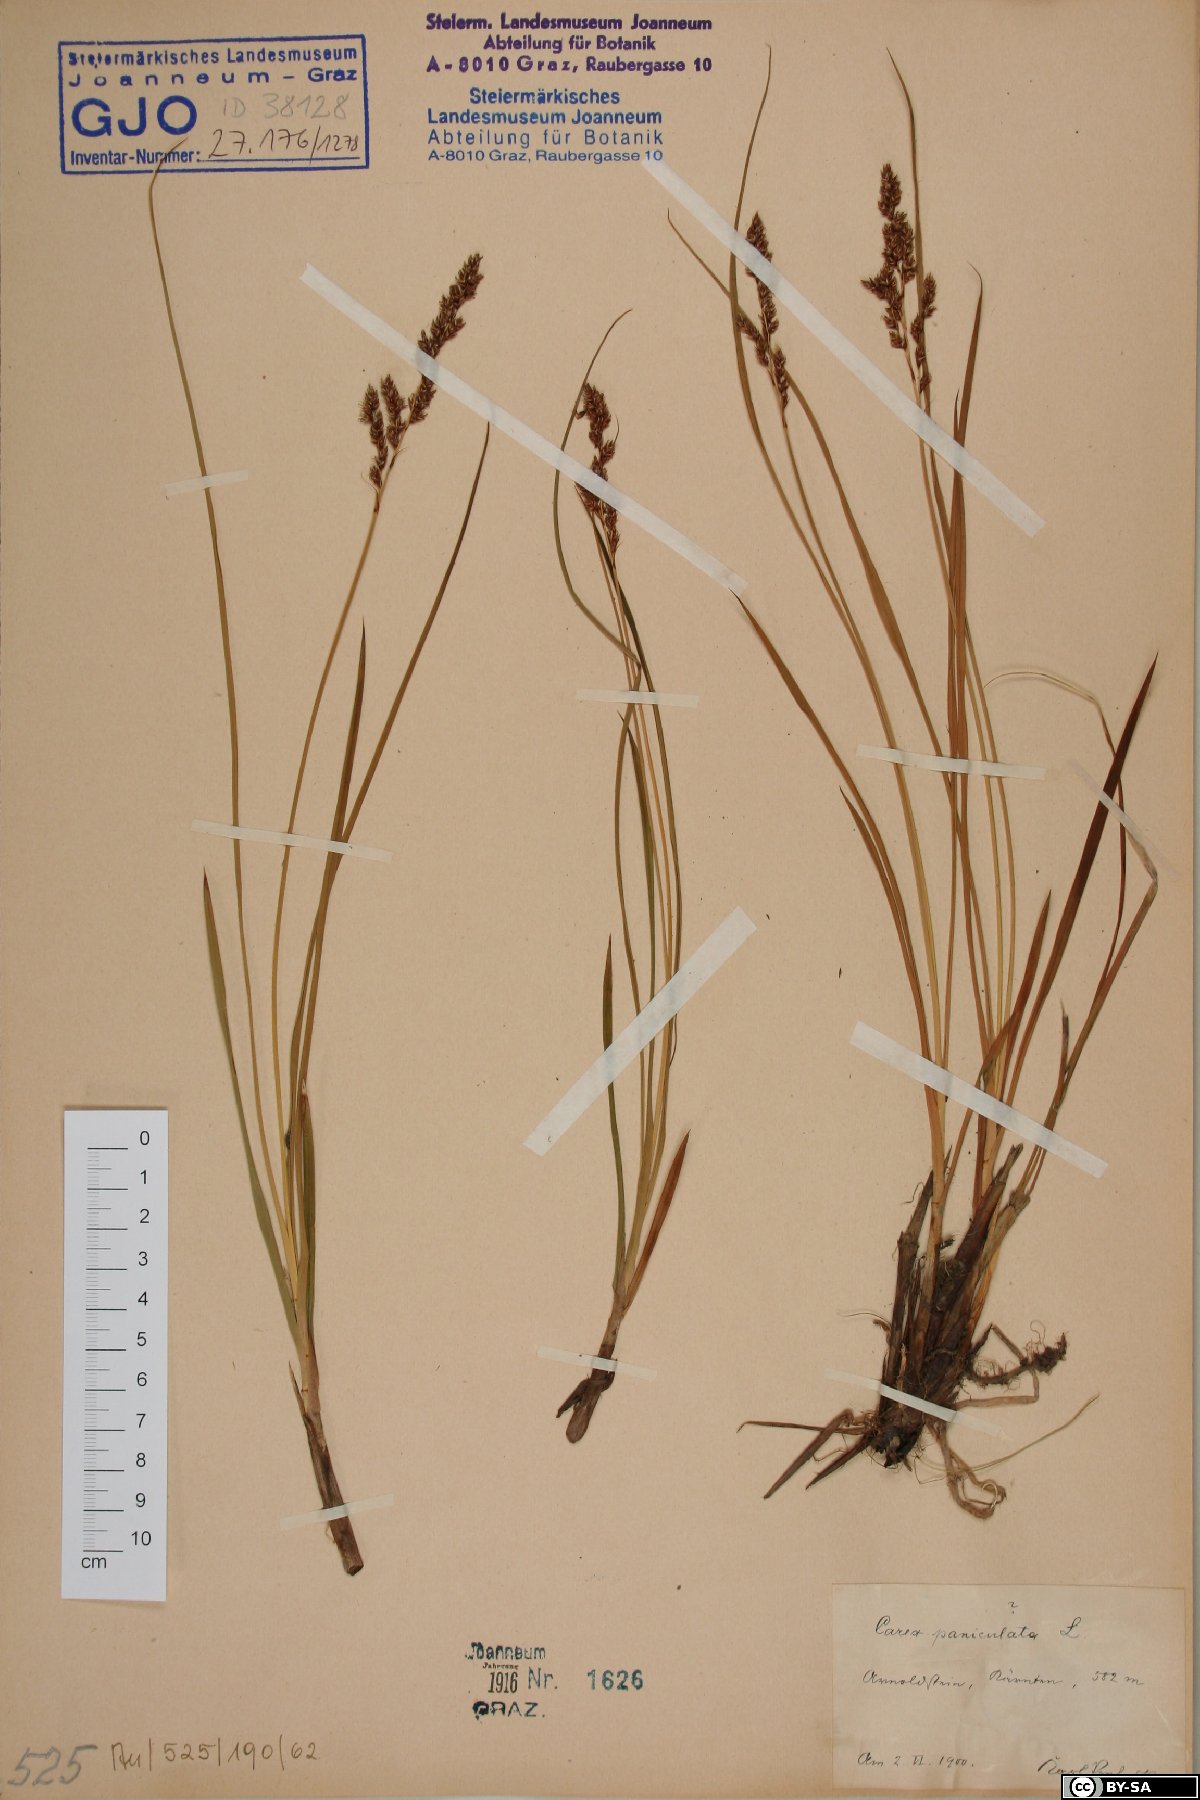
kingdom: Plantae
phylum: Tracheophyta
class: Liliopsida
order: Poales
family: Cyperaceae
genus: Carex
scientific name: Carex paniculata
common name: Greater tussock-sedge
